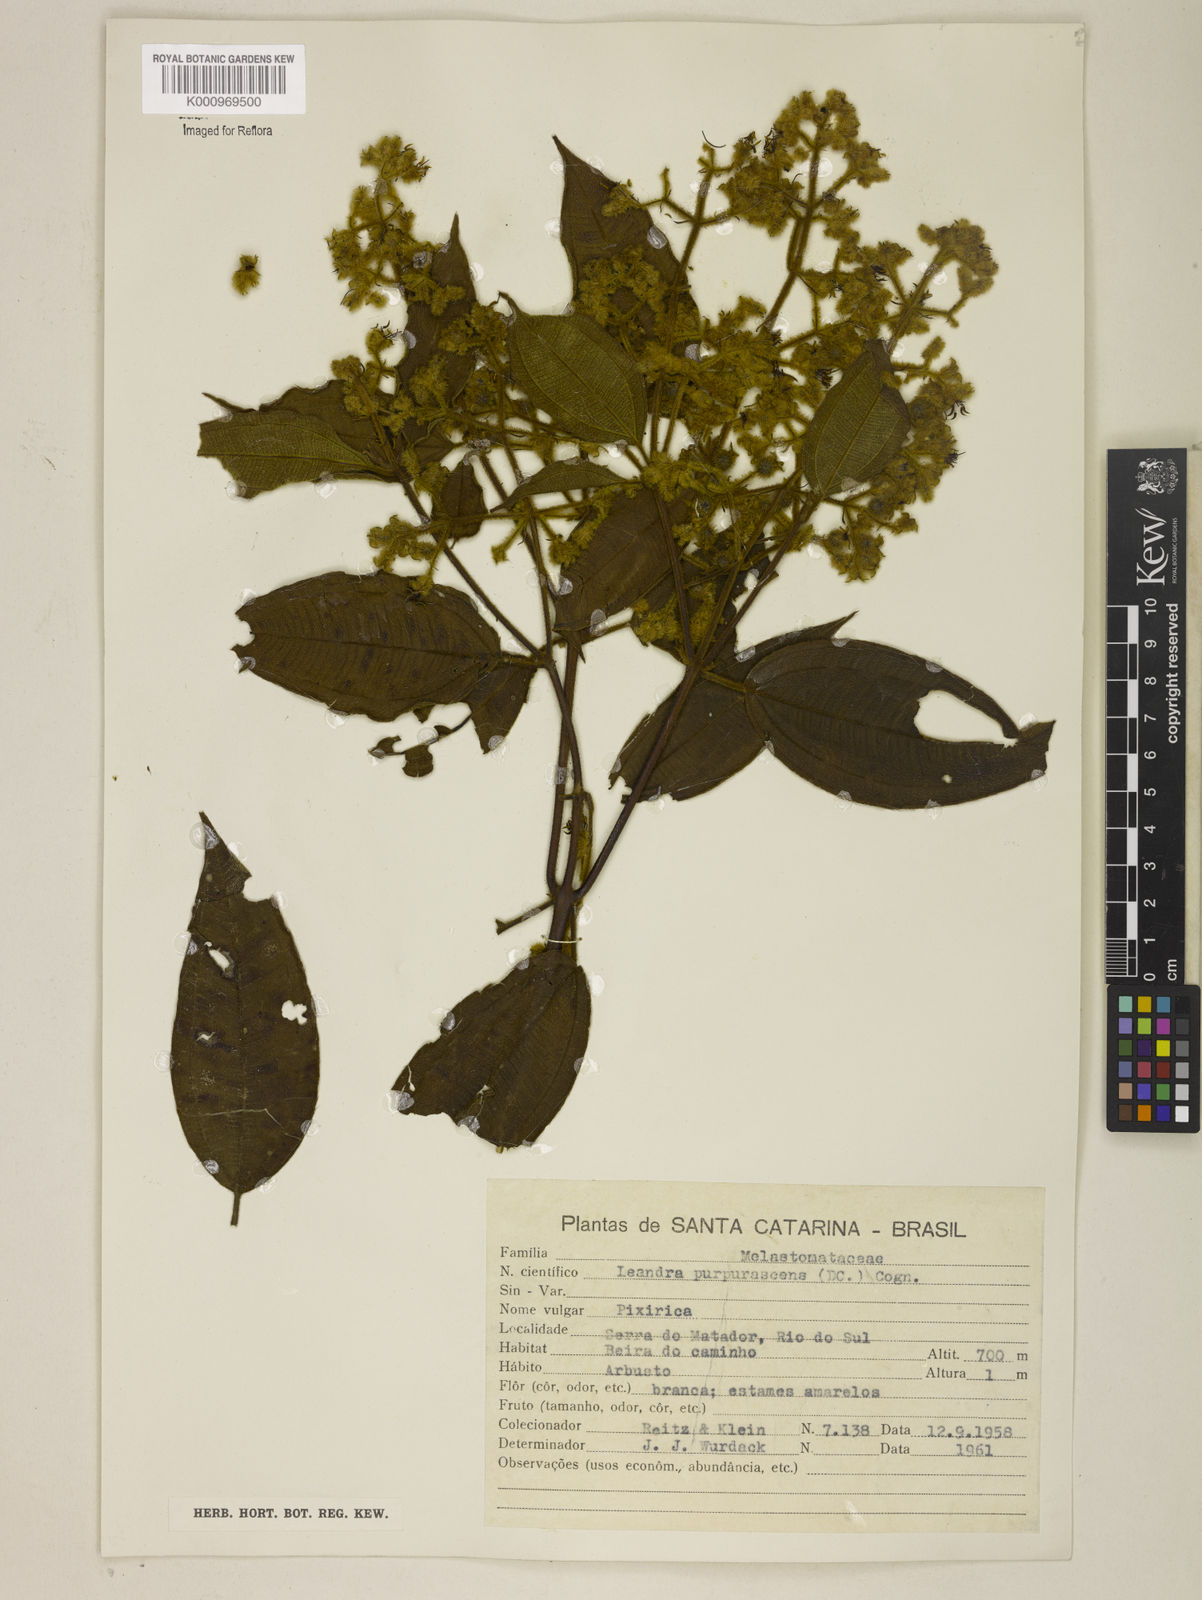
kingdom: Plantae
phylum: Tracheophyta
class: Magnoliopsida
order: Myrtales
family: Melastomataceae
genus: Miconia
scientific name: Miconia microstachya
